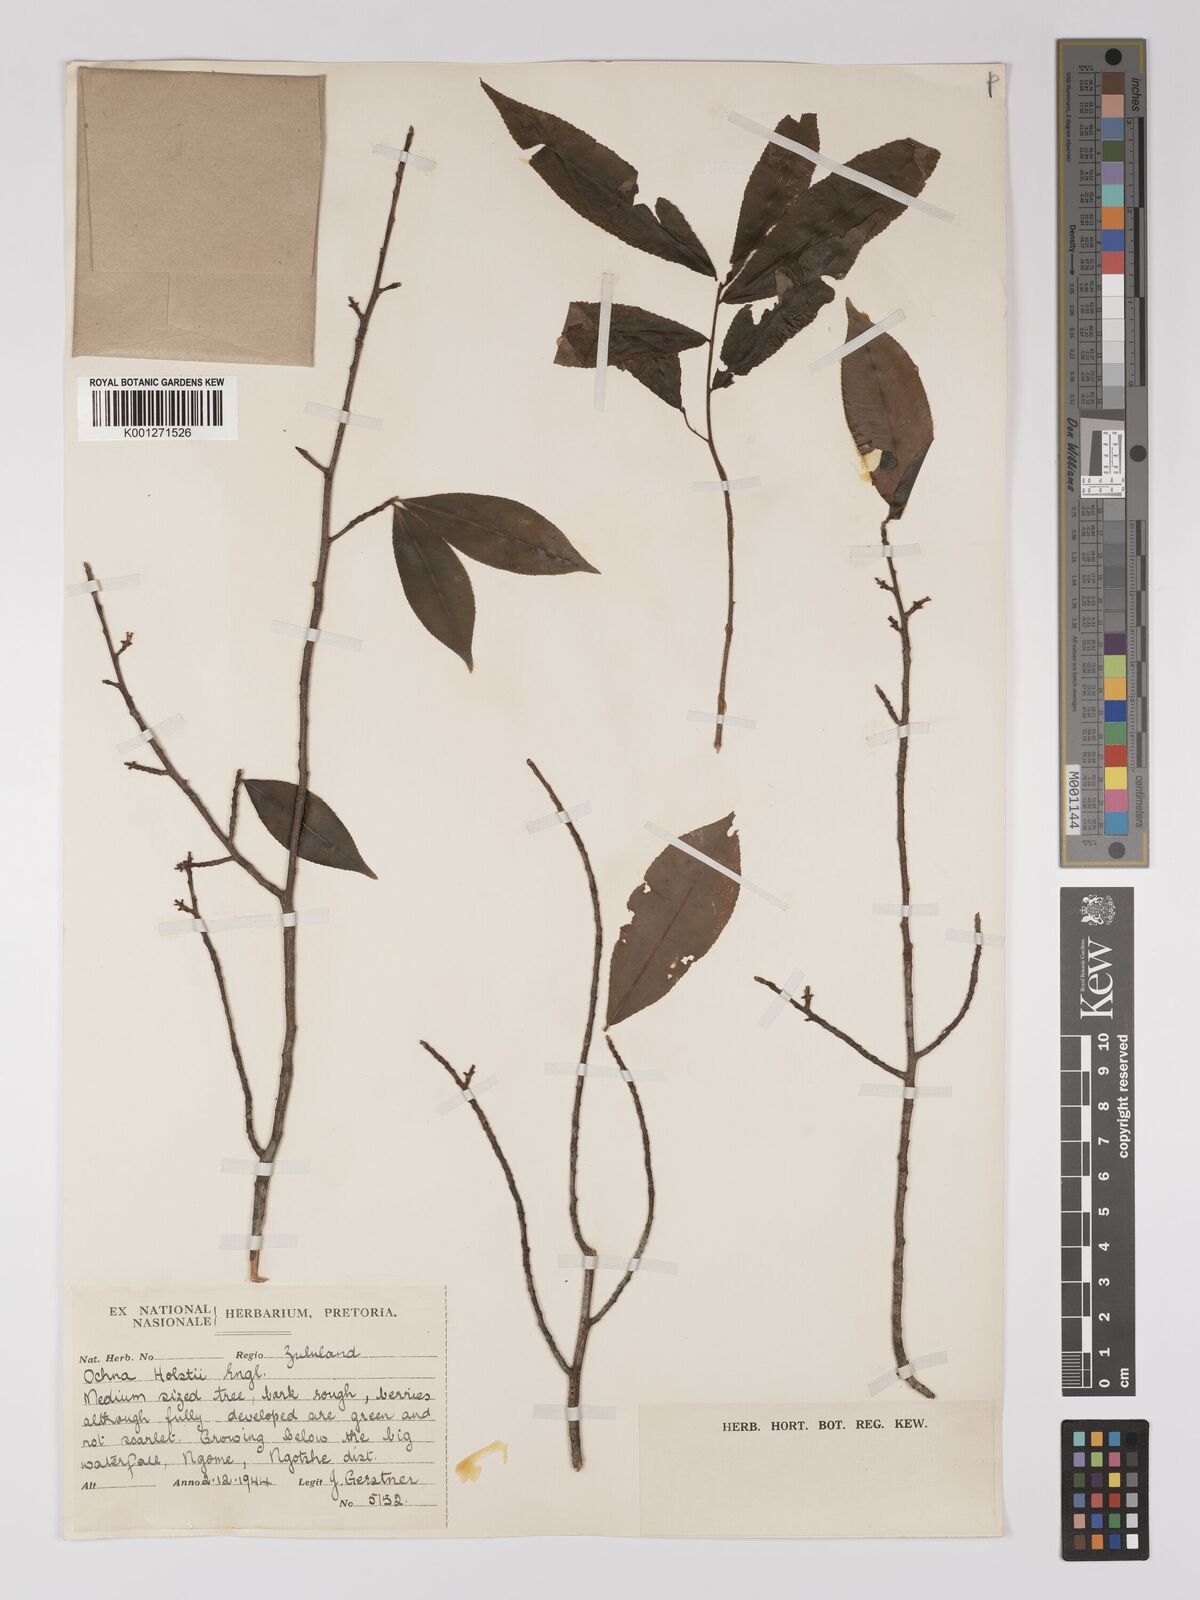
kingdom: Plantae
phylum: Tracheophyta
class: Magnoliopsida
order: Malpighiales
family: Ochnaceae
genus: Ochna
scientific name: Ochna holstii
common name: Red ironwood
